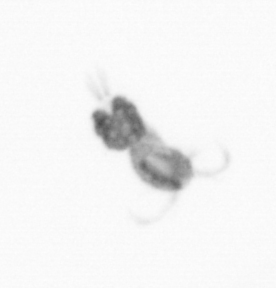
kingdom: Animalia
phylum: Arthropoda
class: Copepoda
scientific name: Copepoda
